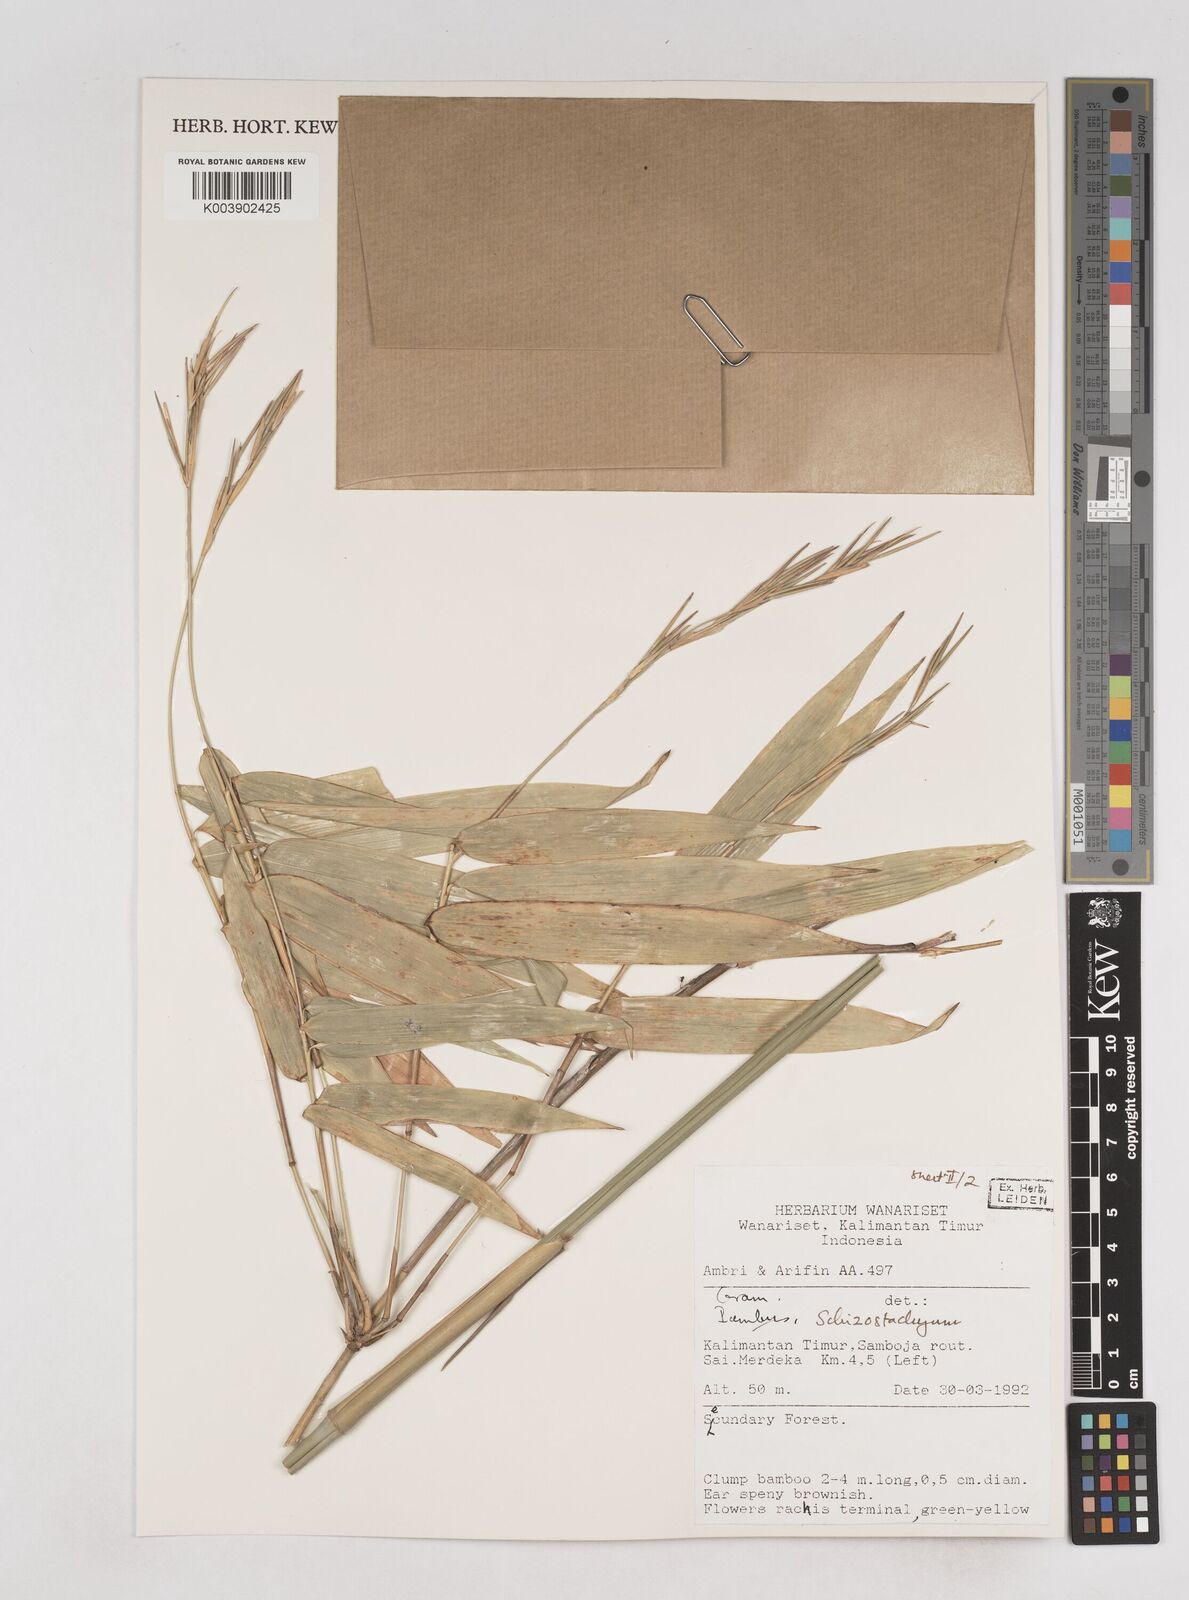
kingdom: Plantae
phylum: Tracheophyta
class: Liliopsida
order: Poales
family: Poaceae
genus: Schizostachyum
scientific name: Schizostachyum
